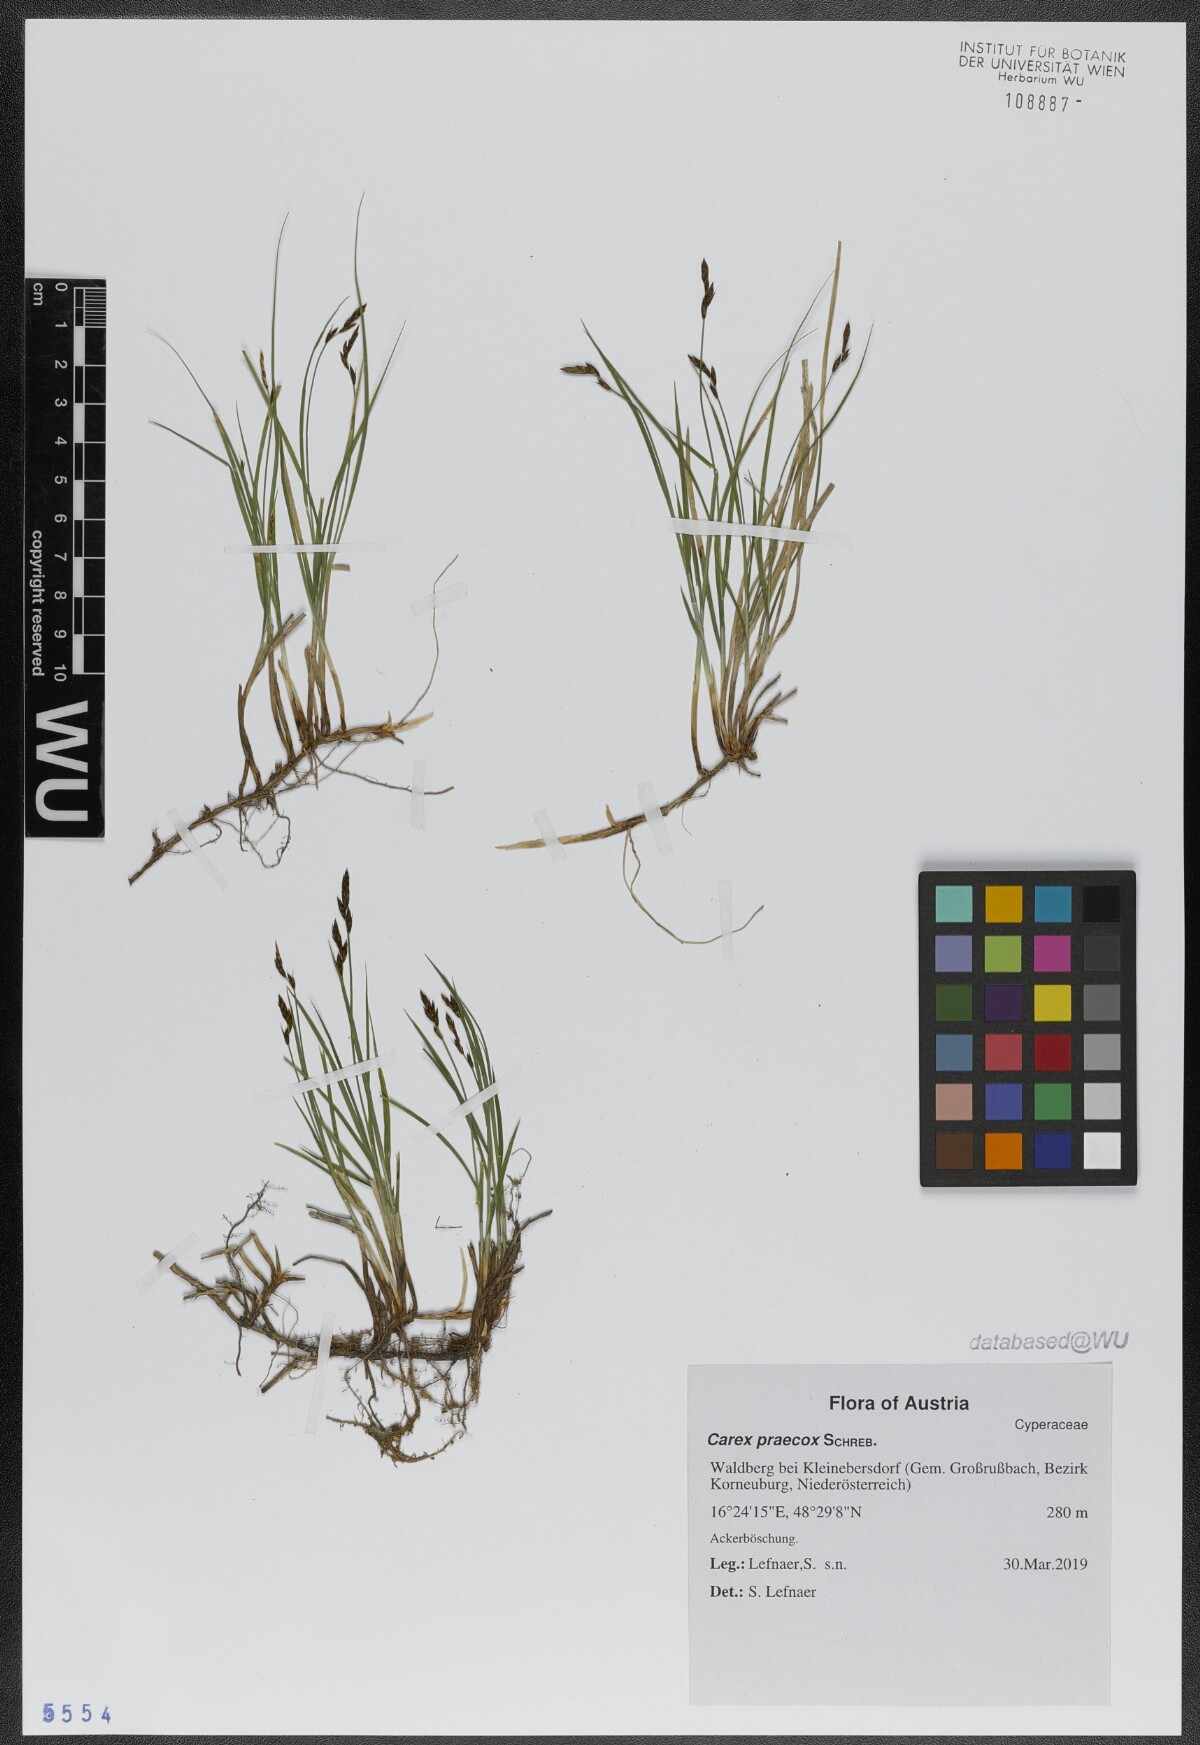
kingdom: Plantae
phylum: Tracheophyta
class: Liliopsida
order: Poales
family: Cyperaceae
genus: Carex
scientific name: Carex praecox
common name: Early sedge
